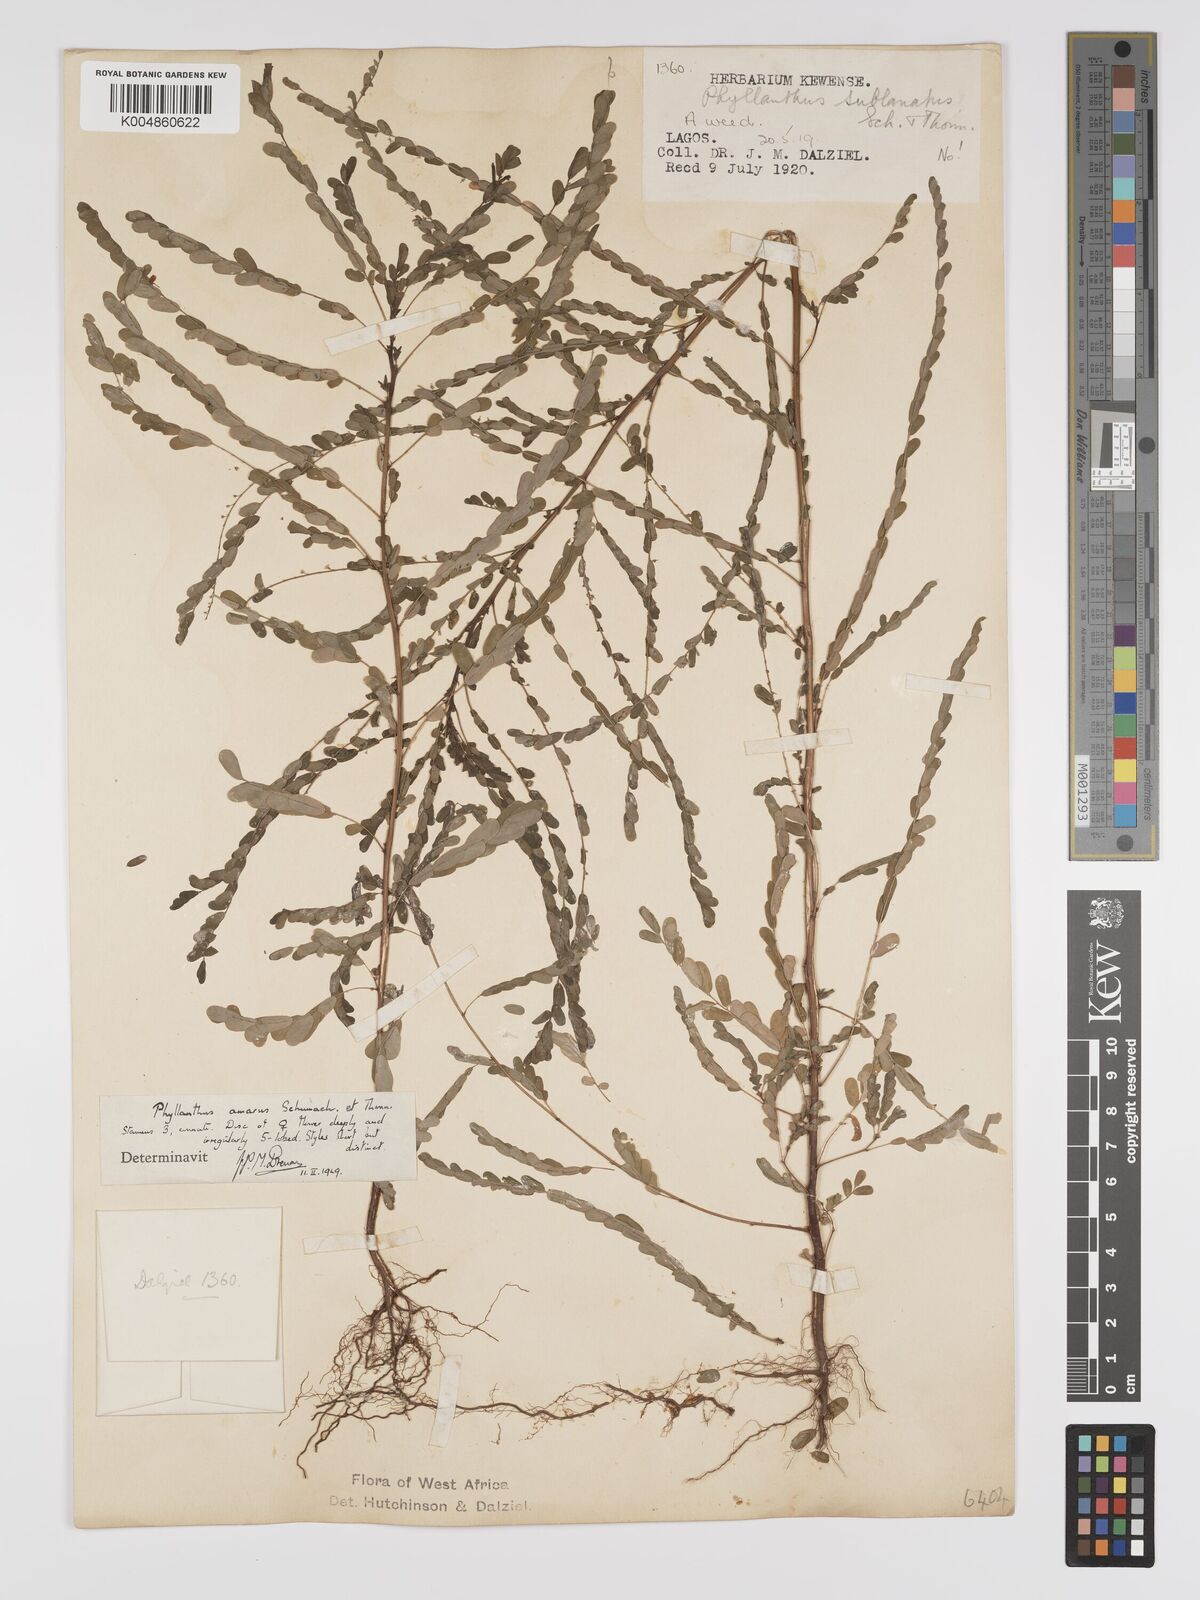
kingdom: Plantae
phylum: Tracheophyta
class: Magnoliopsida
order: Malpighiales
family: Phyllanthaceae
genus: Phyllanthus
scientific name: Phyllanthus amarus
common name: Carry me seed
